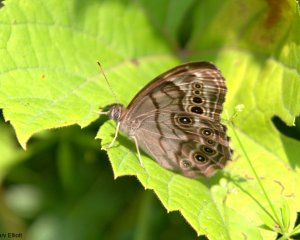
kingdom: Animalia
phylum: Arthropoda
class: Insecta
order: Lepidoptera
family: Nymphalidae
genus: Lethe
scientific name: Lethe anthedon
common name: Northern Pearly-Eye
